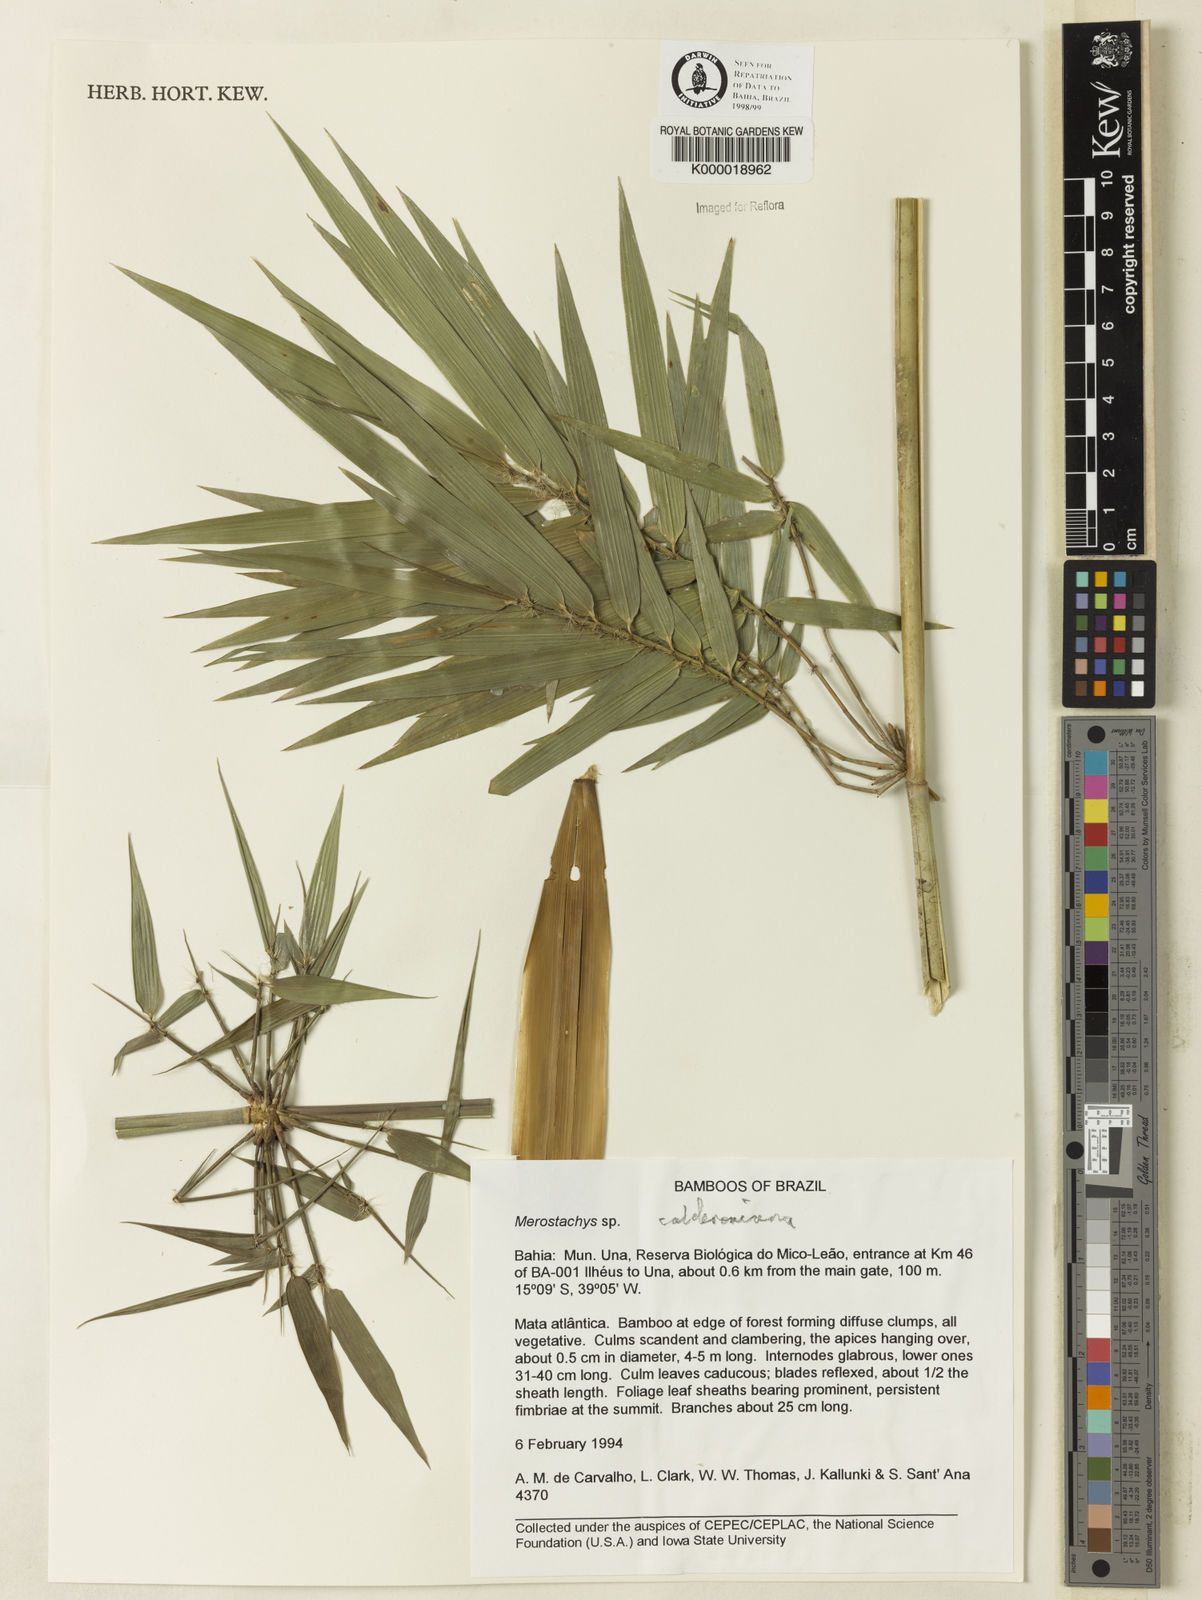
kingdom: Plantae
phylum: Tracheophyta
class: Liliopsida
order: Poales
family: Poaceae
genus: Merostachys
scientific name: Merostachys calderoniana
